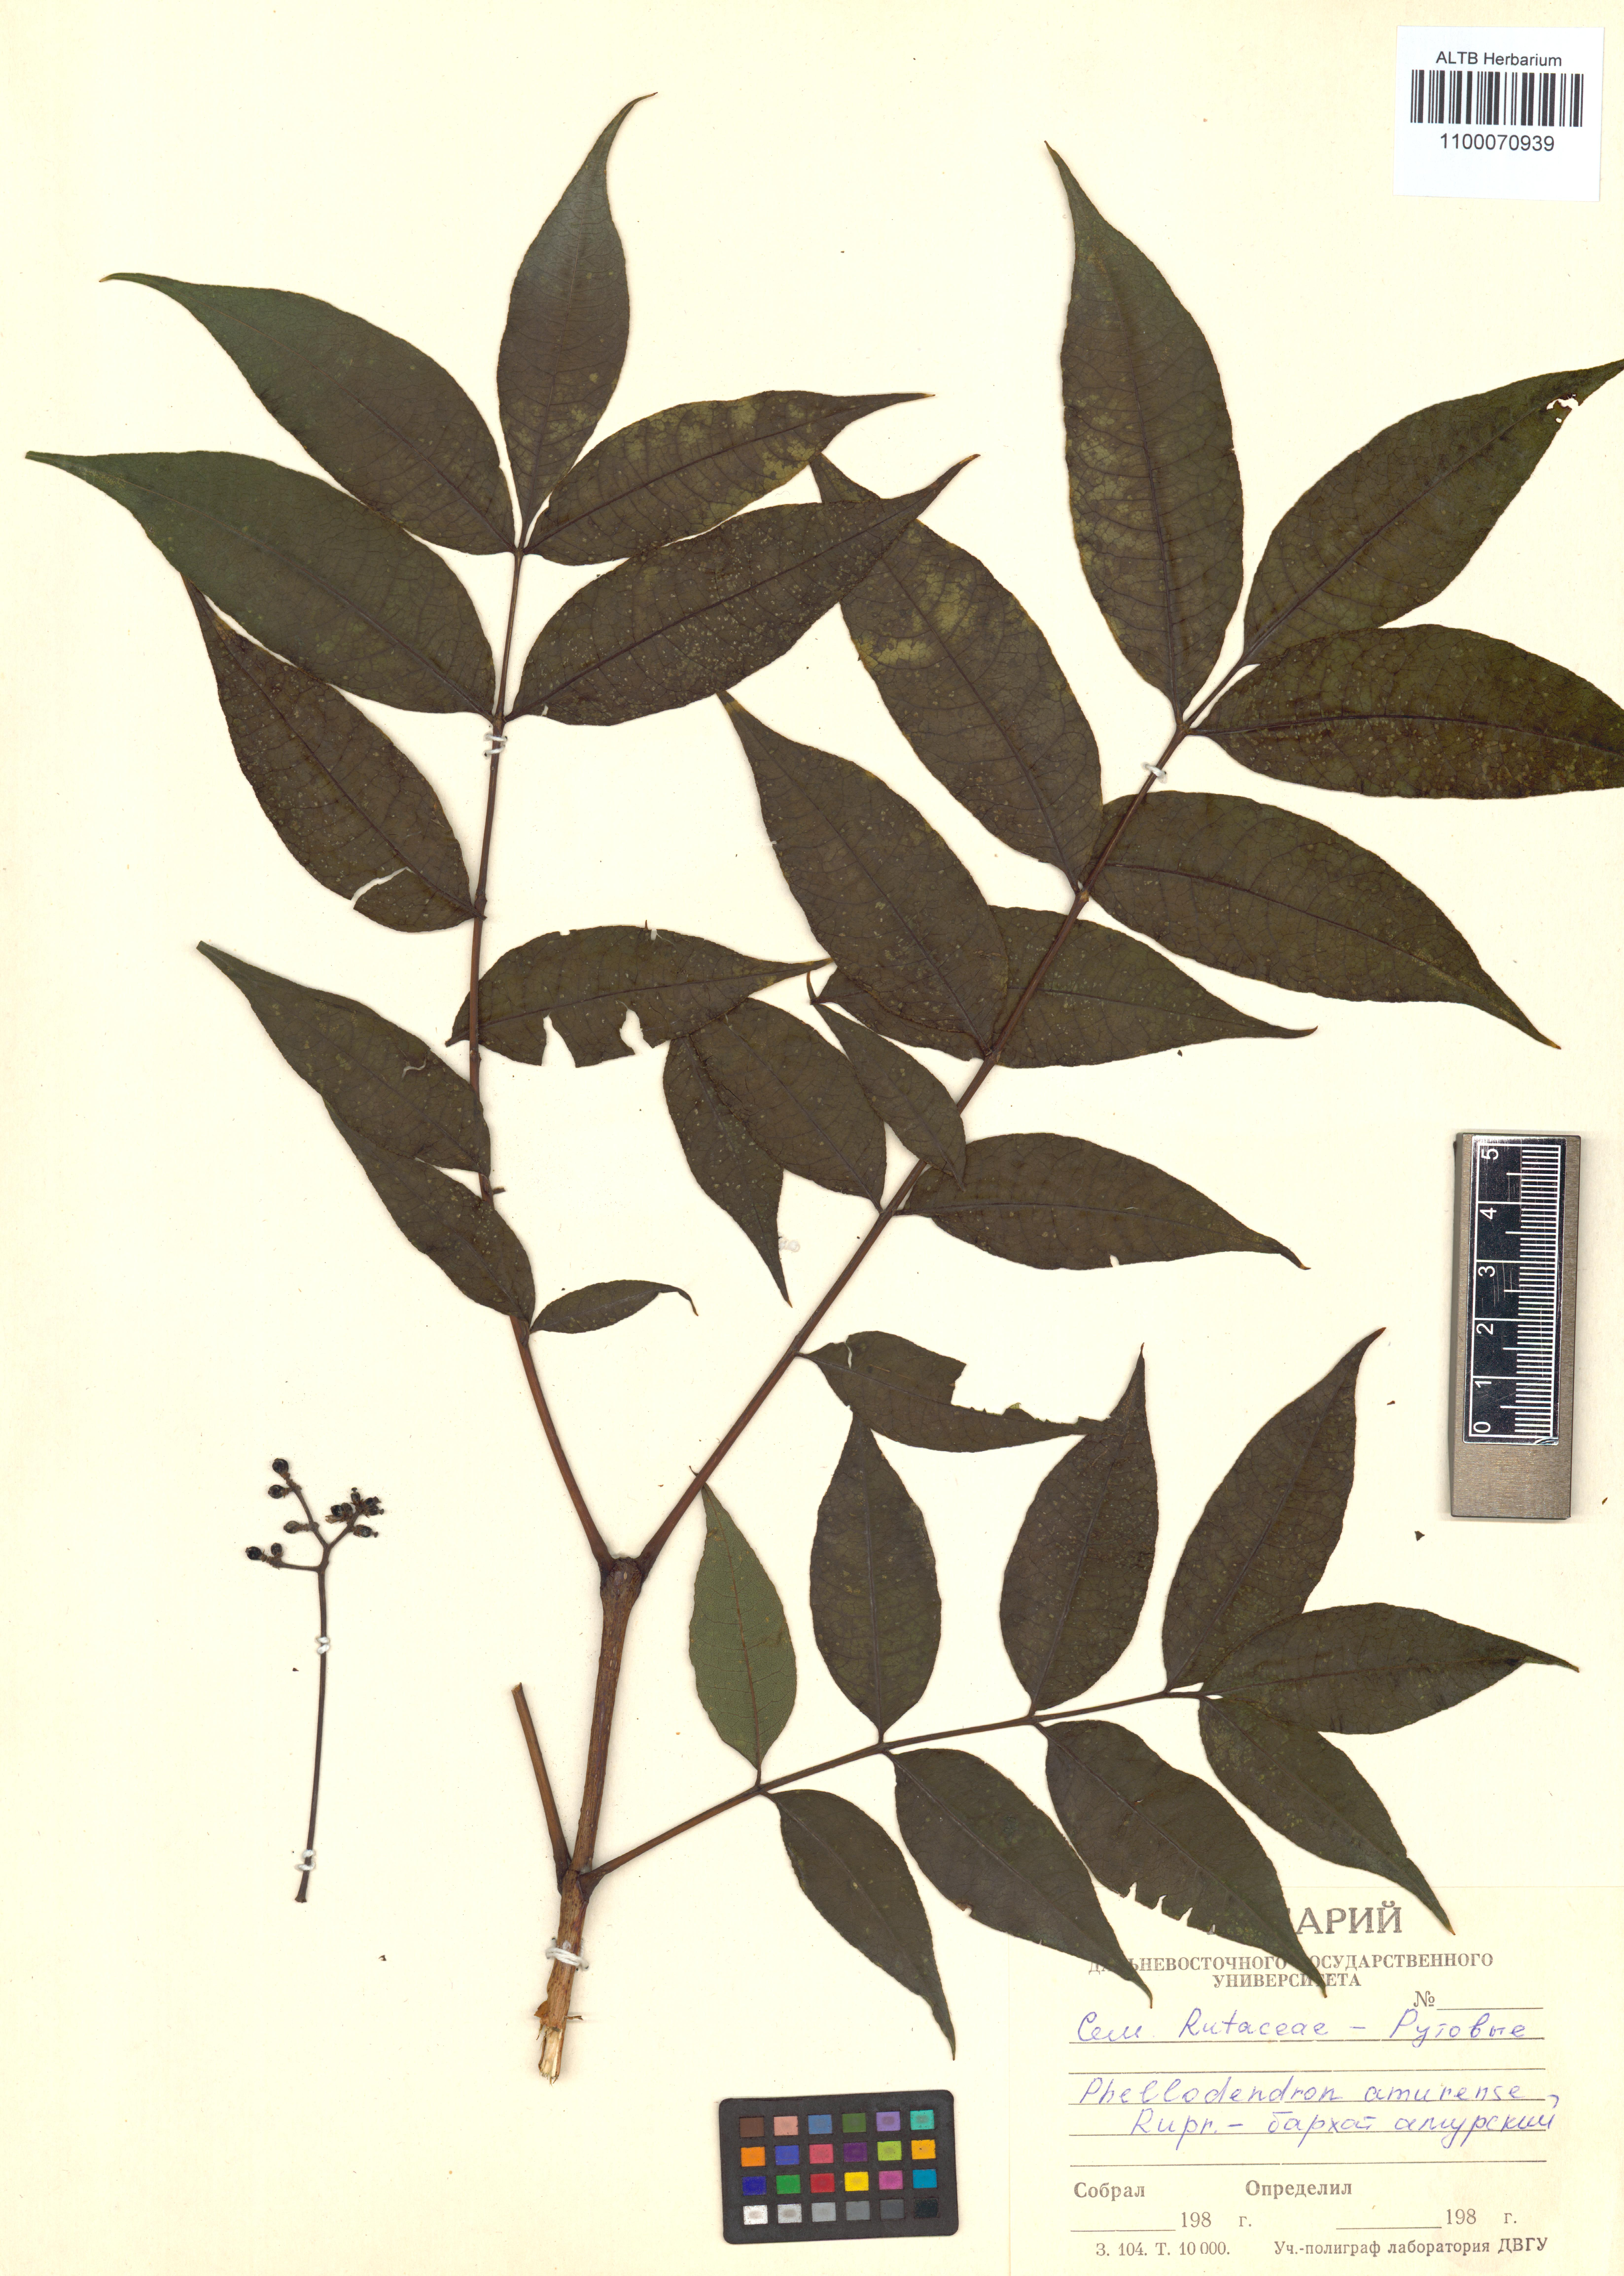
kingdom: Plantae
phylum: Tracheophyta
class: Magnoliopsida
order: Sapindales
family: Rutaceae
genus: Phellodendron
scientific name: Phellodendron amurense
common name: Amur corktree
